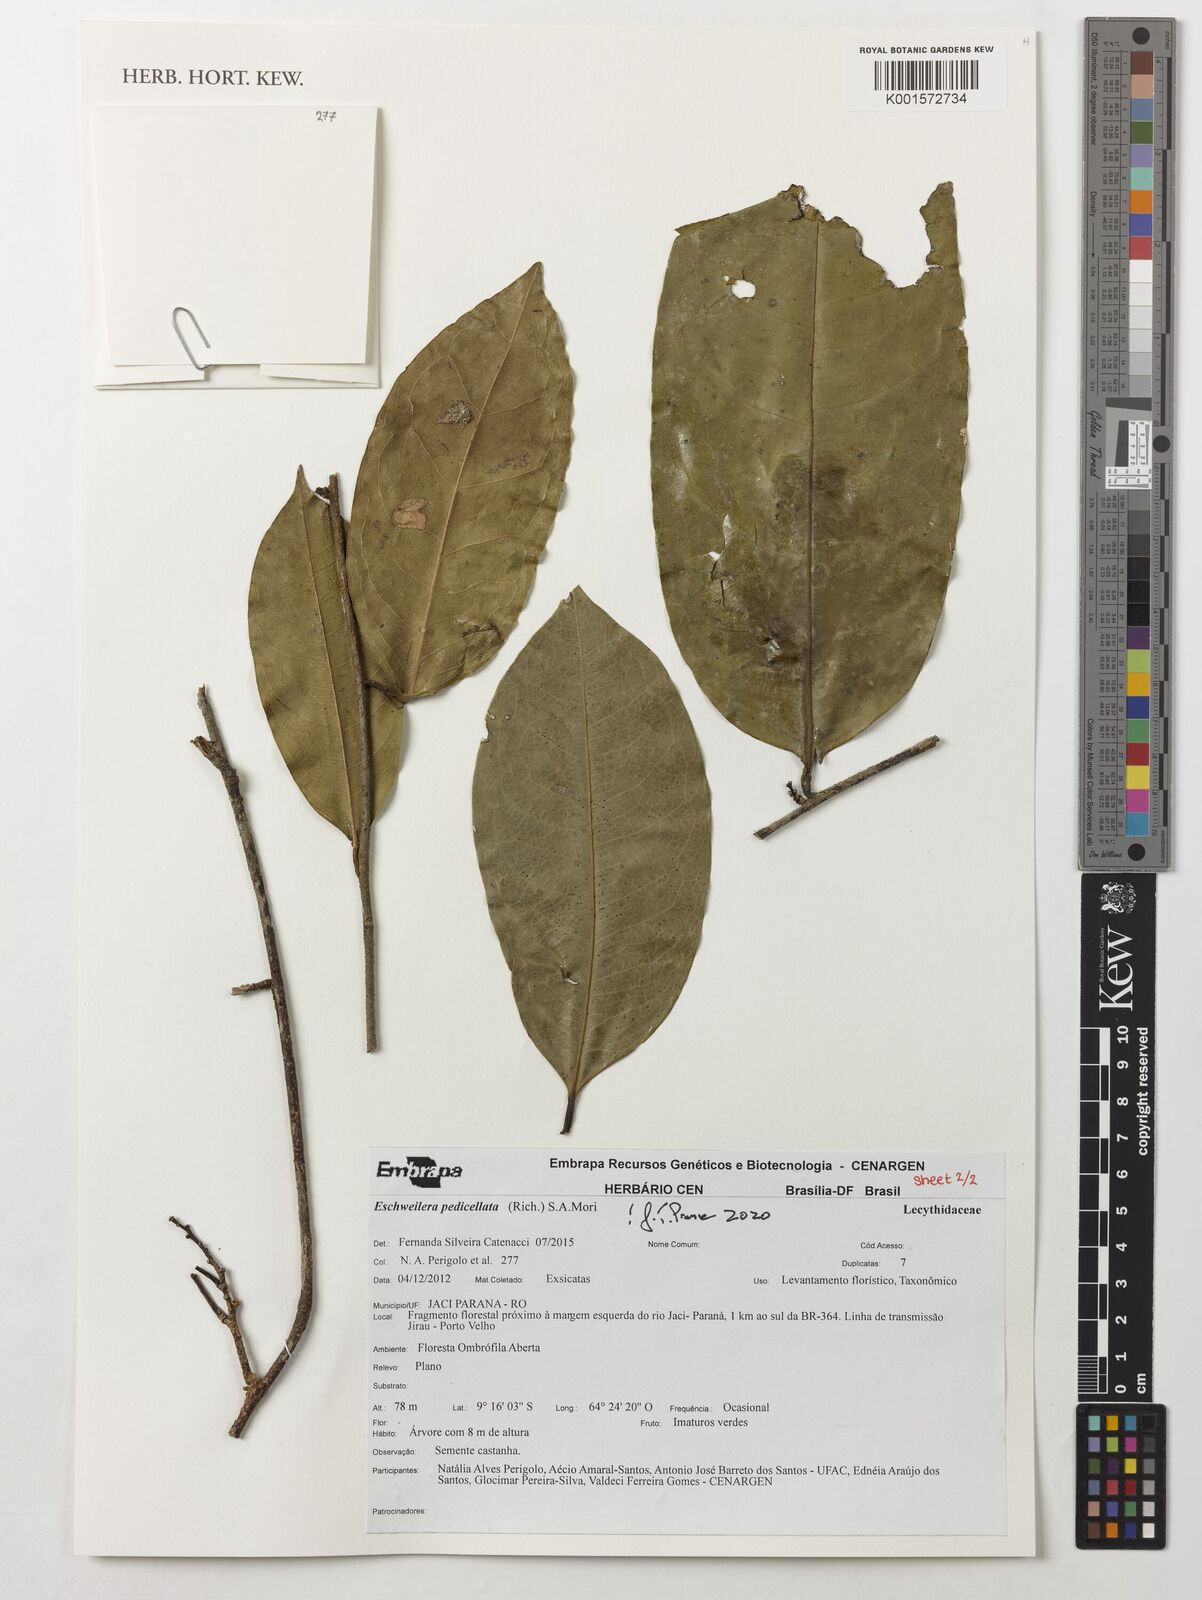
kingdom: Plantae
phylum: Tracheophyta
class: Magnoliopsida
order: Ericales
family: Lecythidaceae
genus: Eschweilera
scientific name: Eschweilera pedicellata
